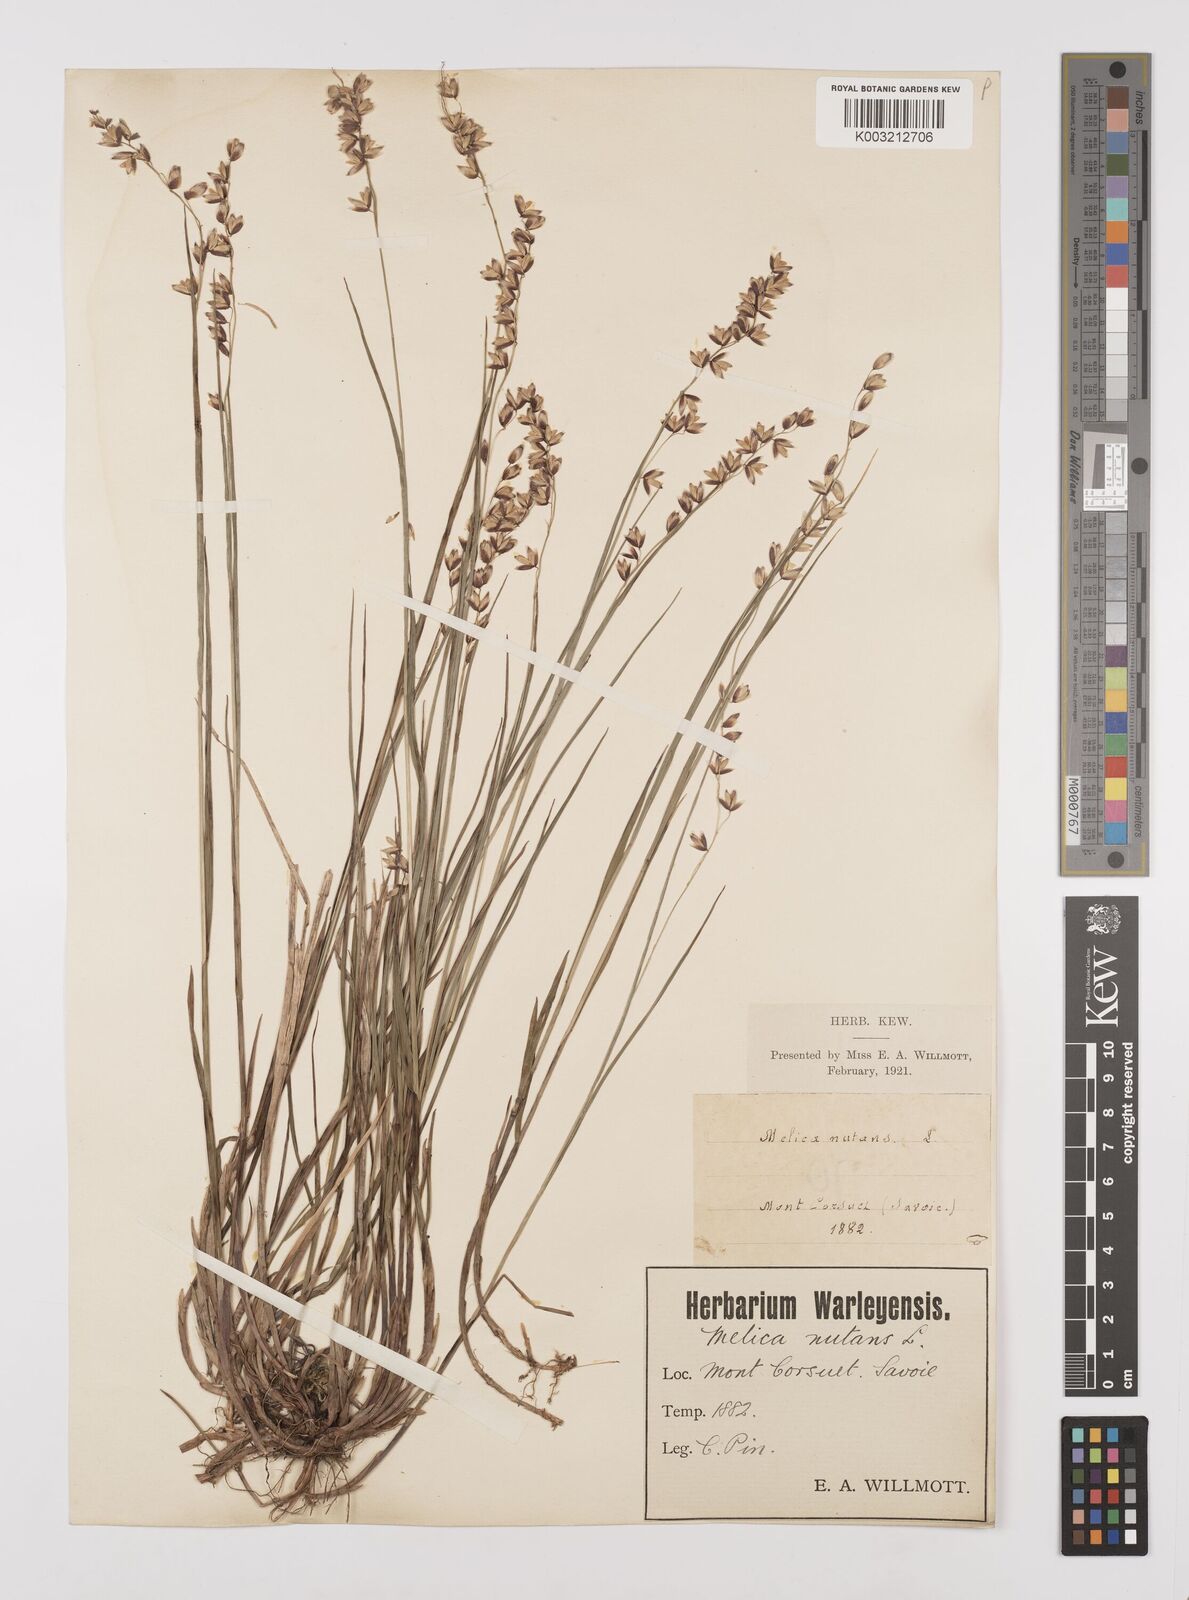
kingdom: Plantae
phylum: Tracheophyta
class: Liliopsida
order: Poales
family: Poaceae
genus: Melica
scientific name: Melica nutans
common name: Mountain melick
